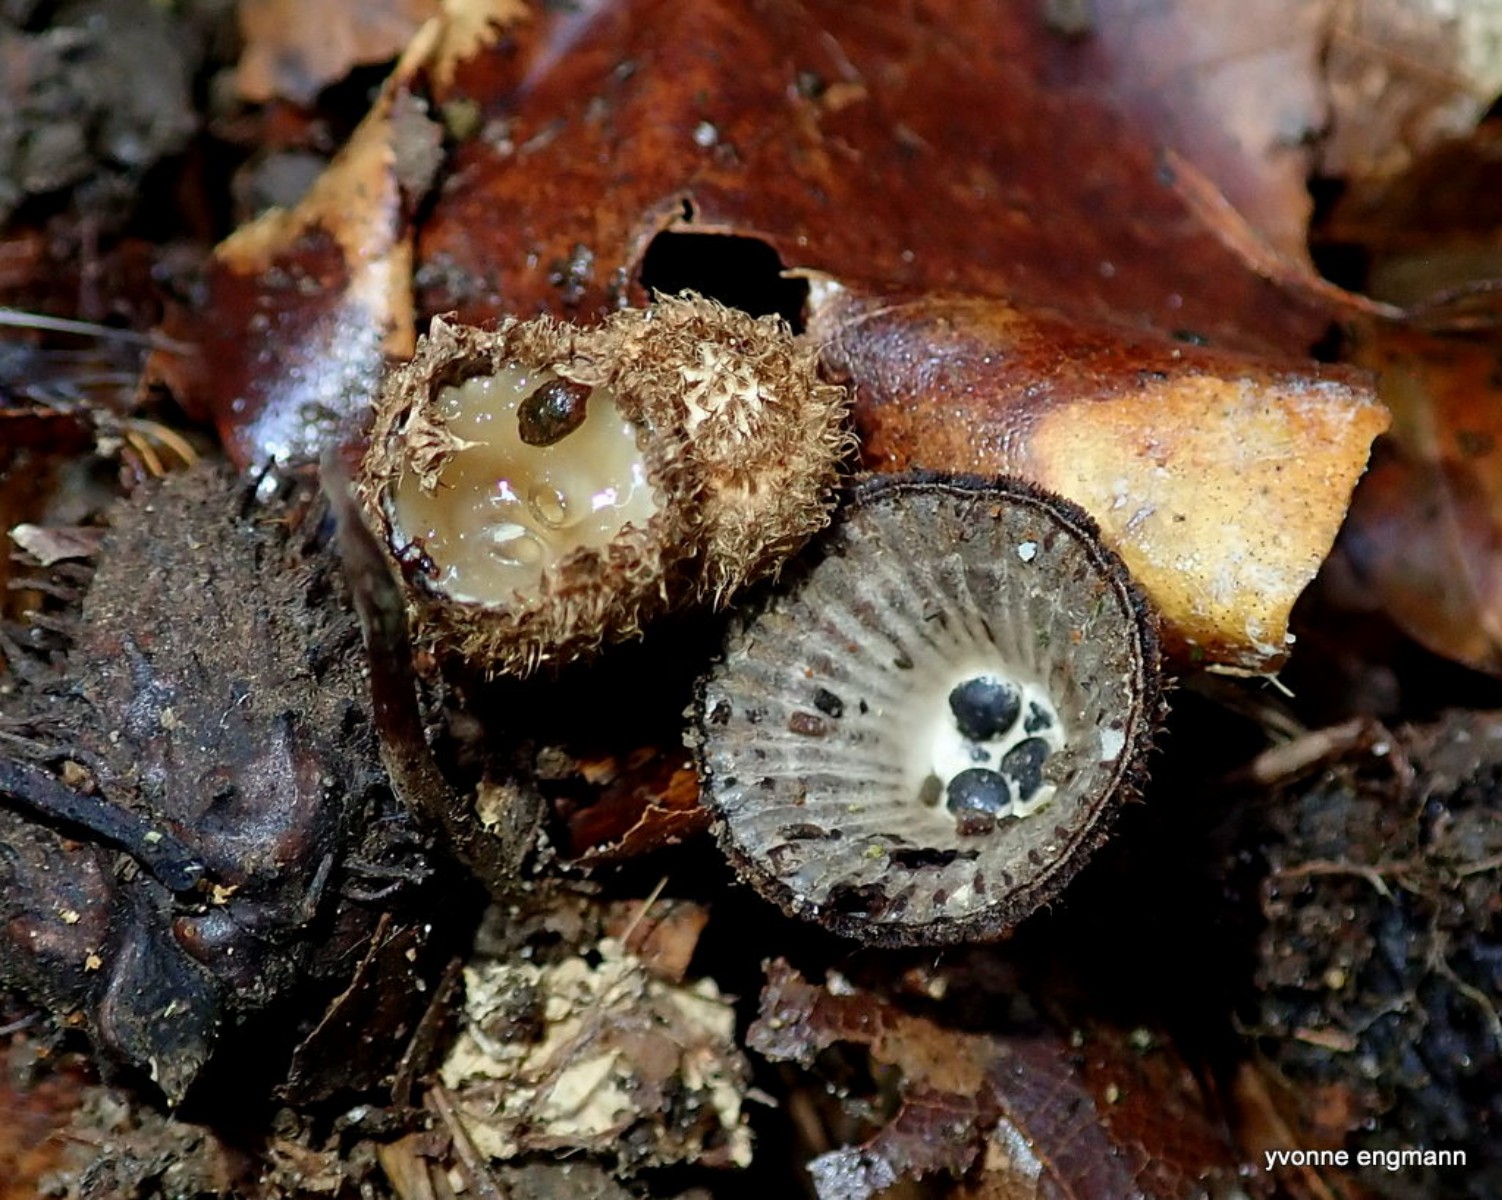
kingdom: Fungi
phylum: Basidiomycota
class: Agaricomycetes
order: Agaricales
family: Agaricaceae
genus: Cyathus
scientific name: Cyathus striatus
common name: stribet redesvamp
